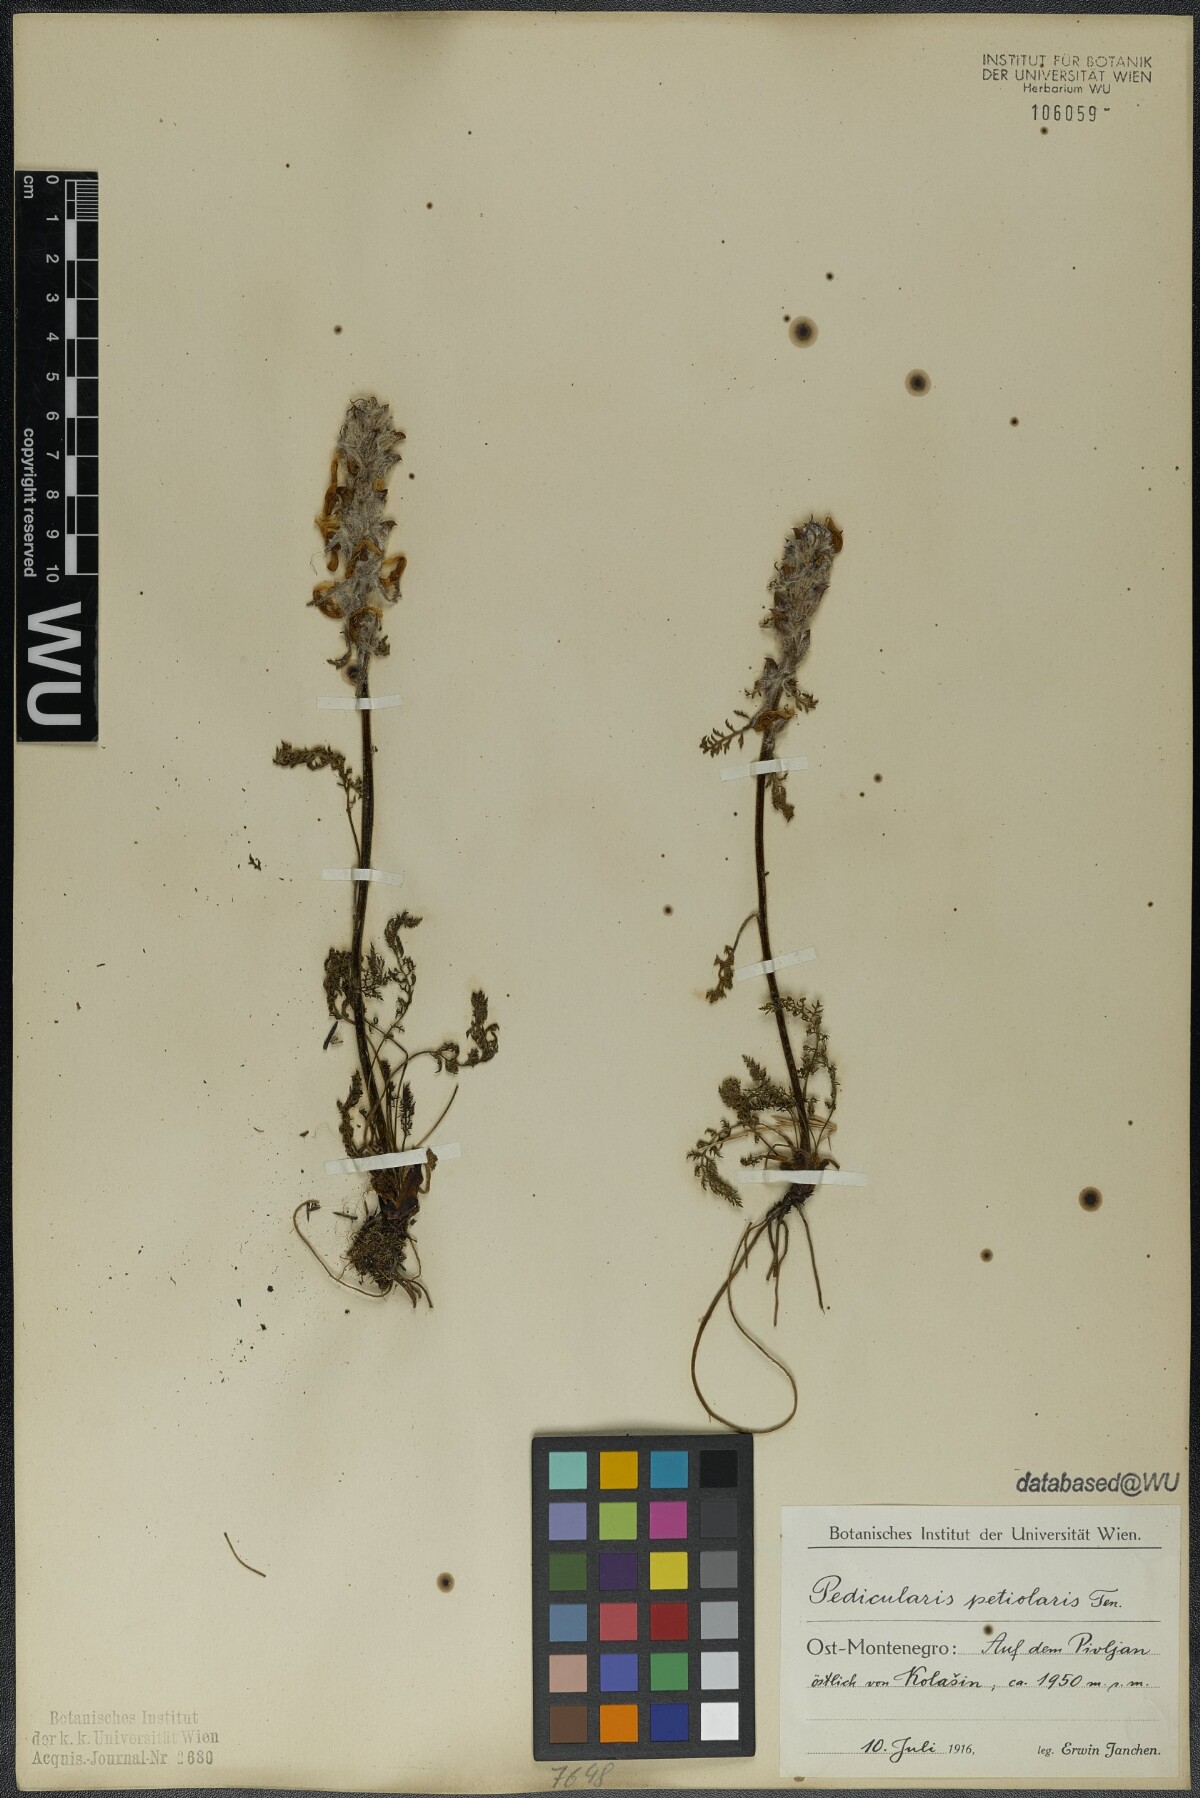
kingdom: Plantae
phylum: Tracheophyta
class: Magnoliopsida
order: Lamiales
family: Orobanchaceae
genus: Pedicularis
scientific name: Pedicularis petiolaris
